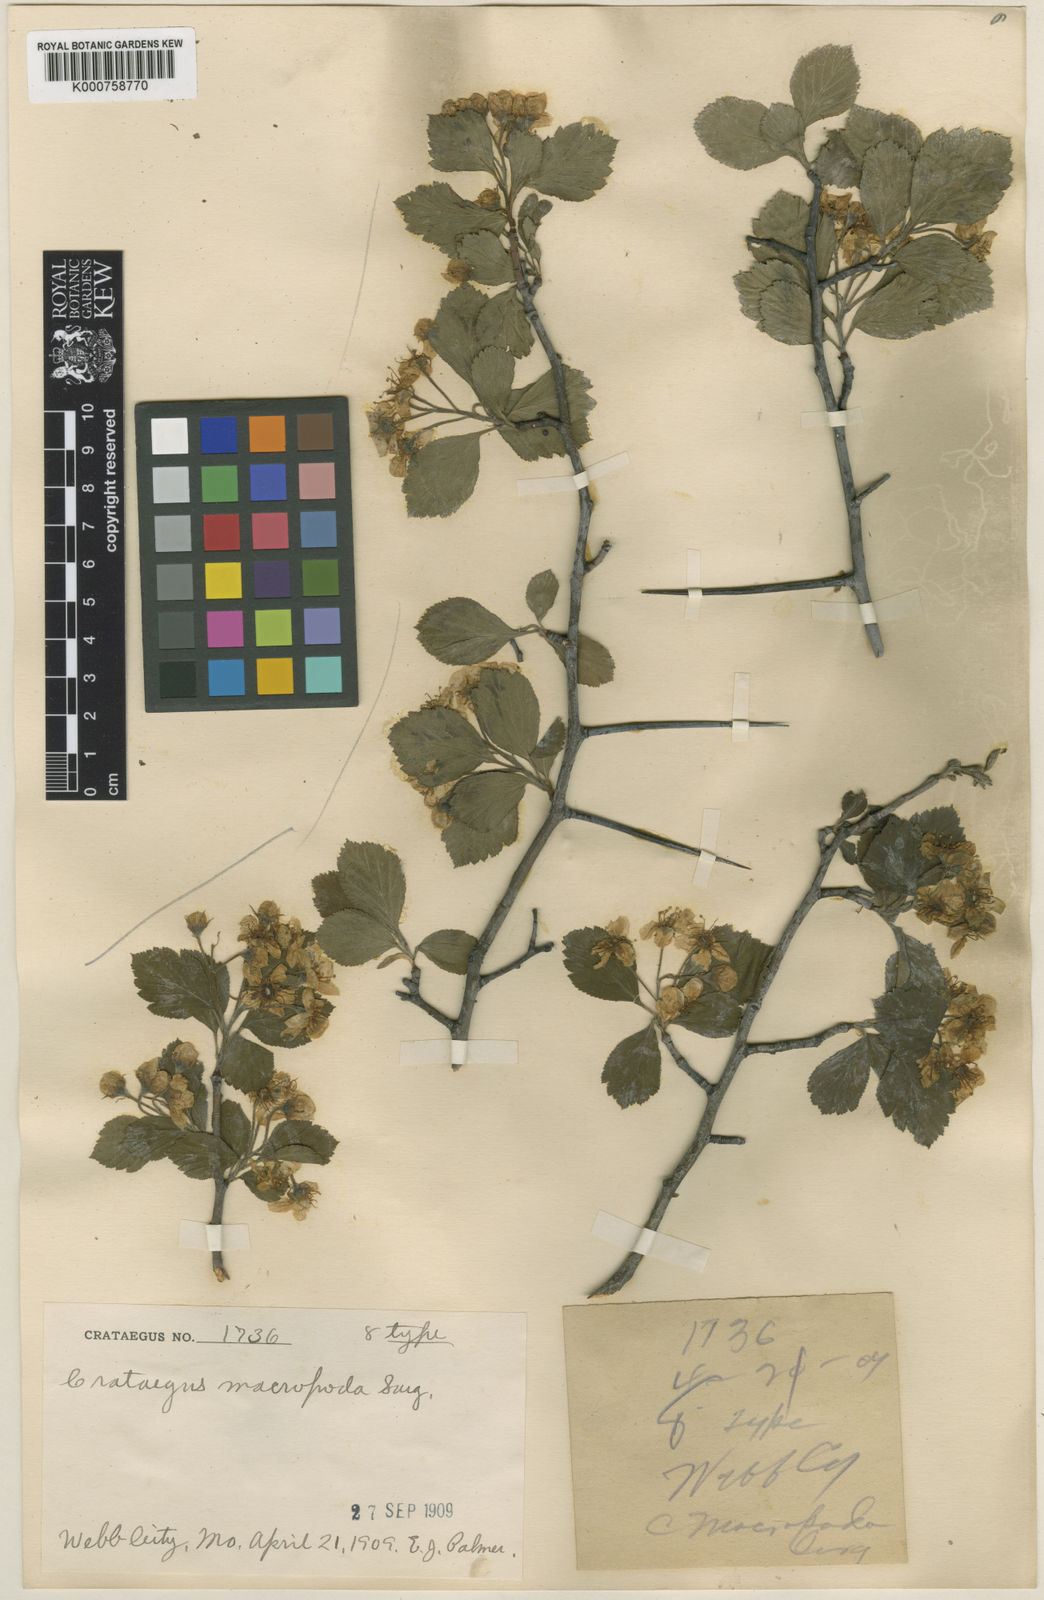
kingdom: Plantae
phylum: Tracheophyta
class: Magnoliopsida
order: Rosales
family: Rosaceae
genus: Crataegus
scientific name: Crataegus macropoda
